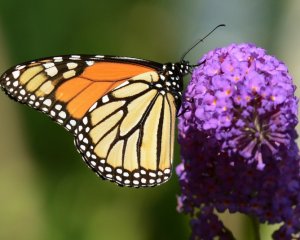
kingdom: Animalia
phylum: Arthropoda
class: Insecta
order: Lepidoptera
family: Nymphalidae
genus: Danaus
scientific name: Danaus plexippus
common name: Monarch
